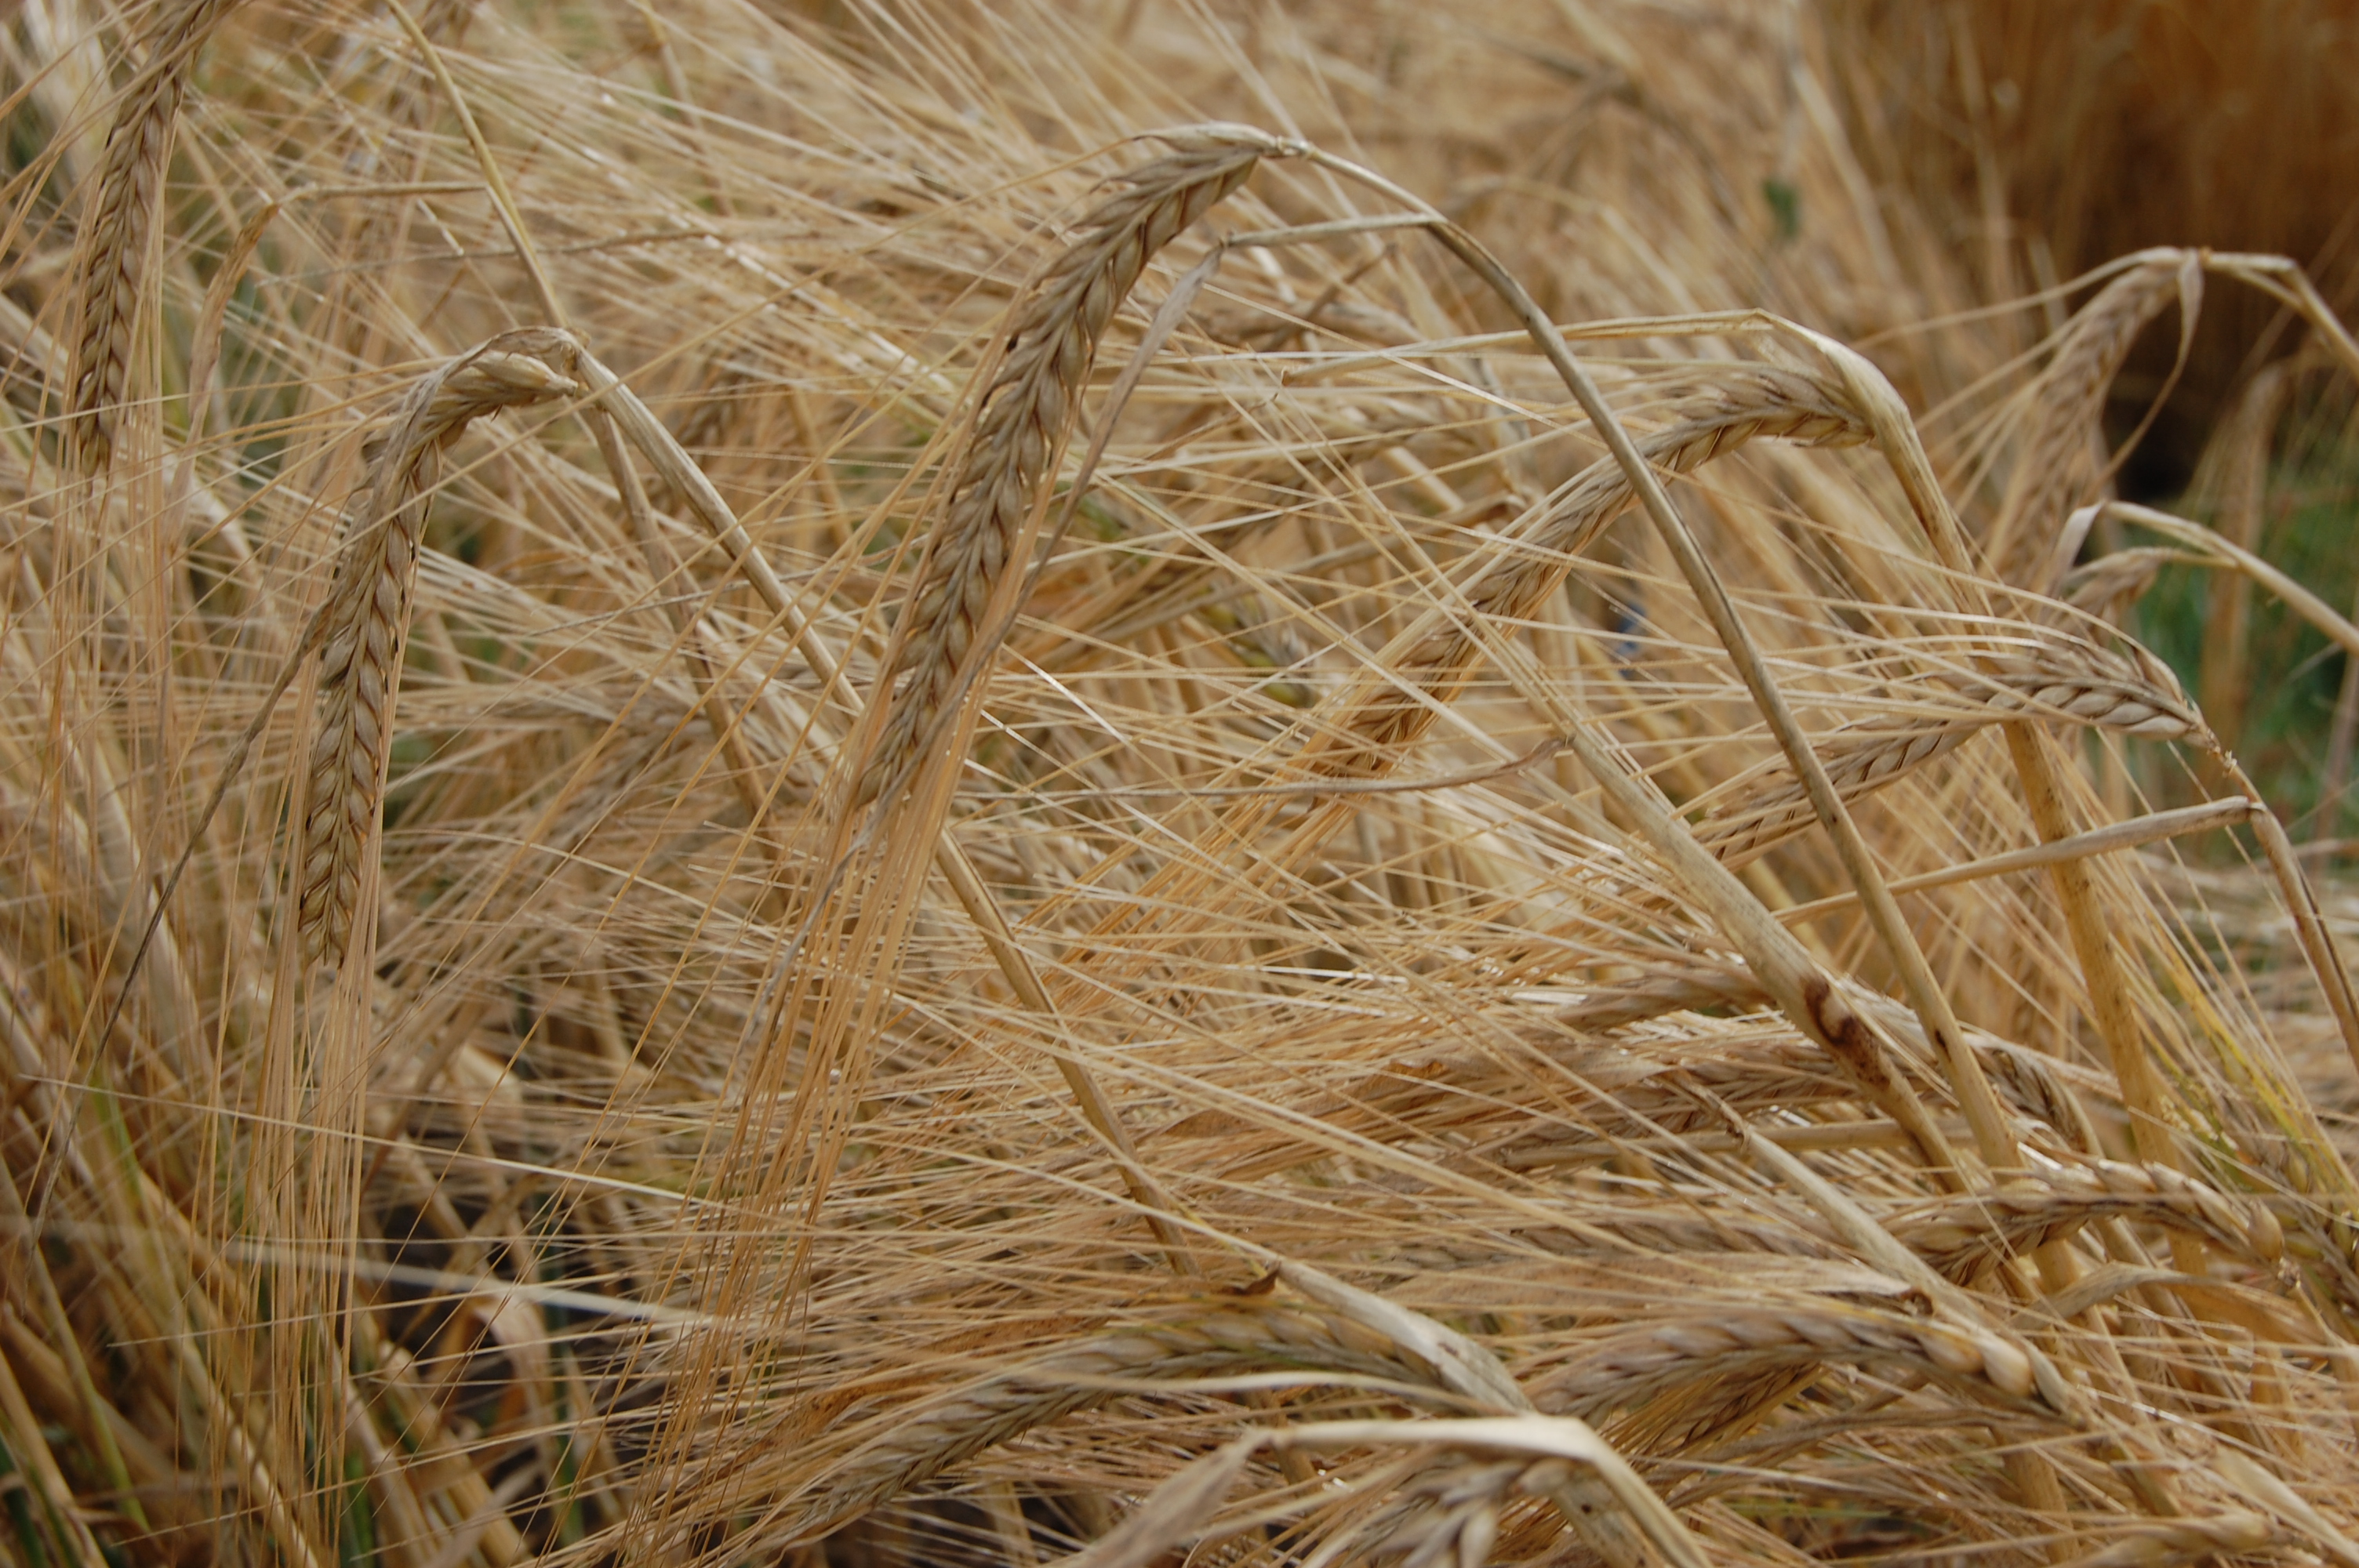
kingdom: Plantae
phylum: Tracheophyta
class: Liliopsida
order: Poales
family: Poaceae
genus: Hordeum
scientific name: Hordeum vulgare
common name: Common barley
